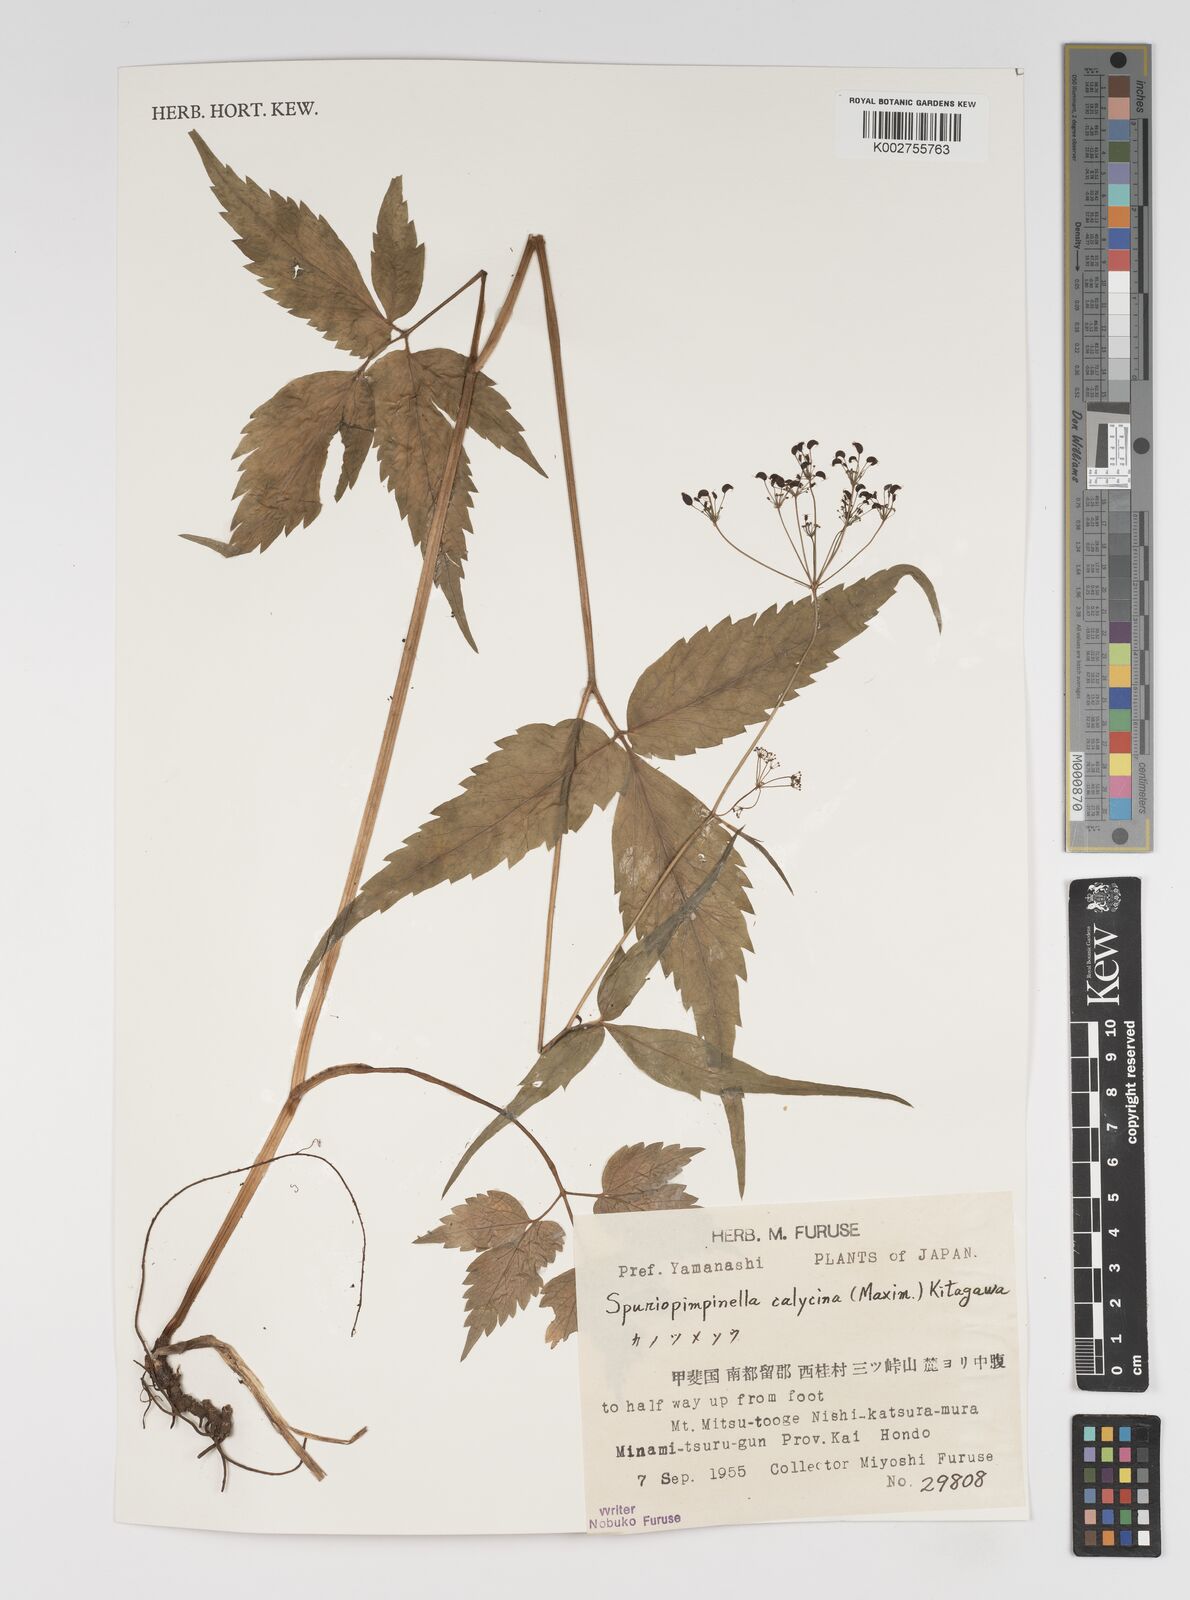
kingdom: Plantae
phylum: Tracheophyta
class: Magnoliopsida
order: Apiales
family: Apiaceae
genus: Spuriopimpinella
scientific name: Spuriopimpinella calycina
